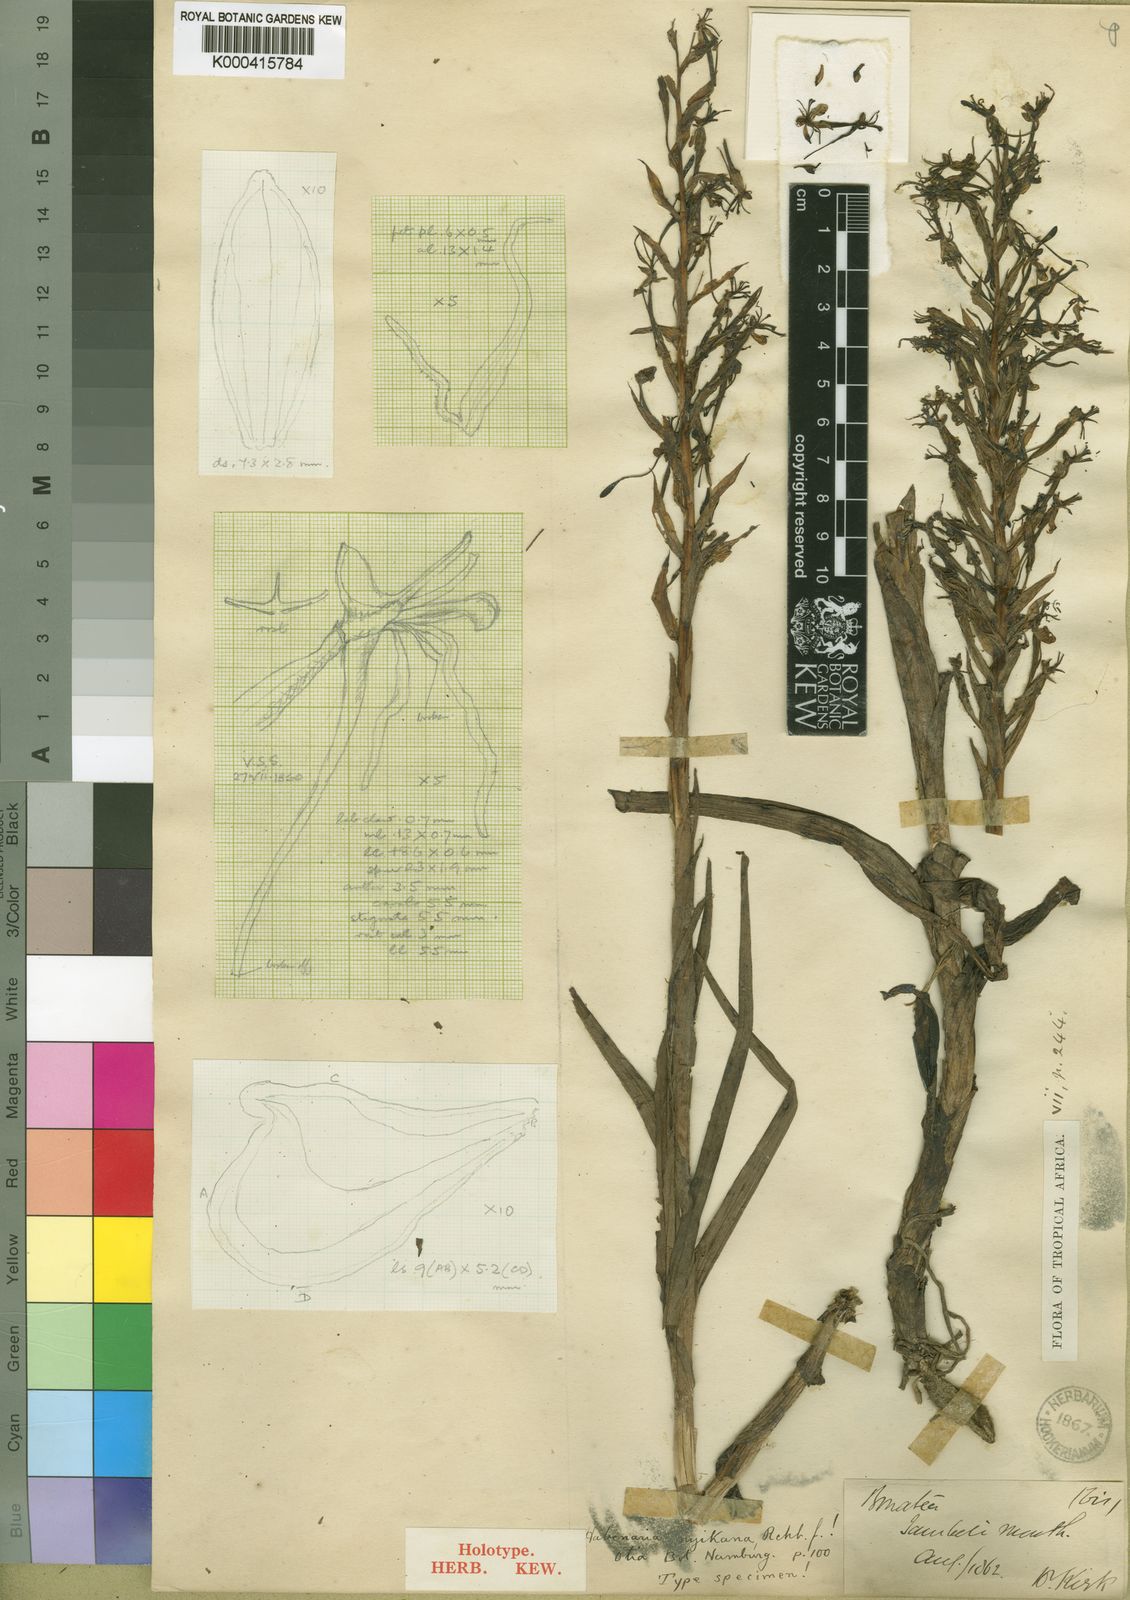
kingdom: Plantae
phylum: Tracheophyta
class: Liliopsida
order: Asparagales
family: Orchidaceae
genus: Habenaria
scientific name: Habenaria nyikana
